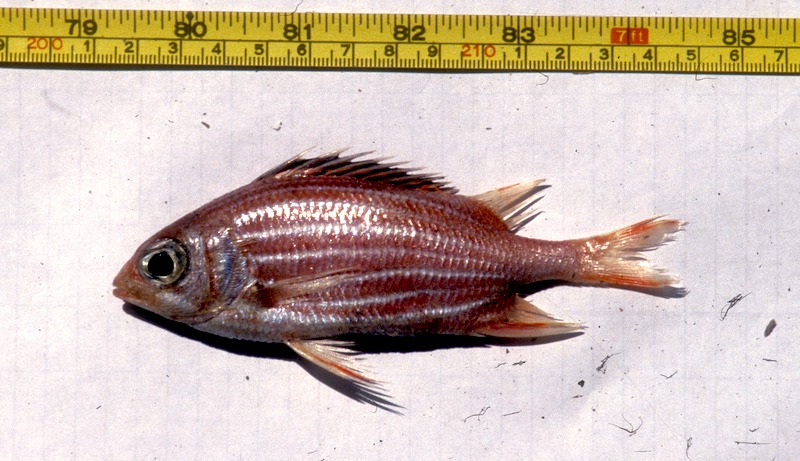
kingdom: Animalia
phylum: Chordata
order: Beryciformes
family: Holocentridae
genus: Sargocentron
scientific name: Sargocentron diadema
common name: Crown squirrelfish
